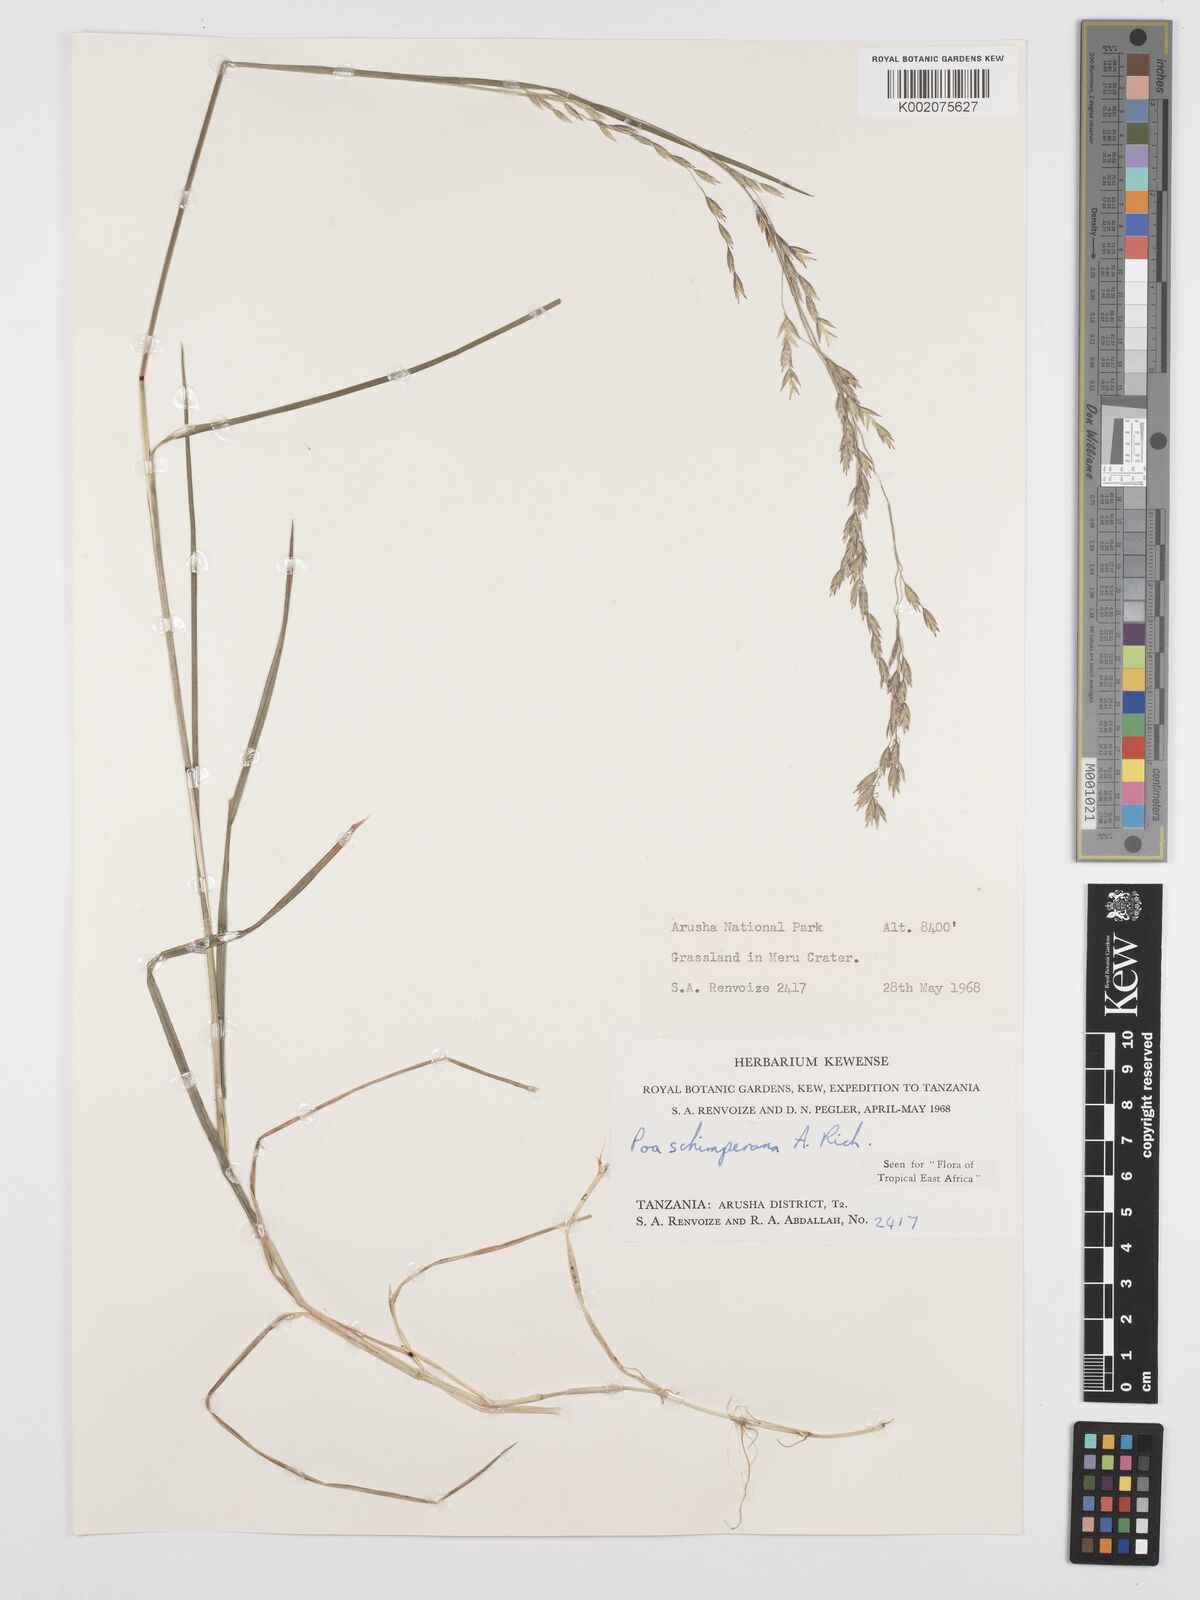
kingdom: Plantae
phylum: Tracheophyta
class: Liliopsida
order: Poales
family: Poaceae
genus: Poa
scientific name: Poa schimperiana
